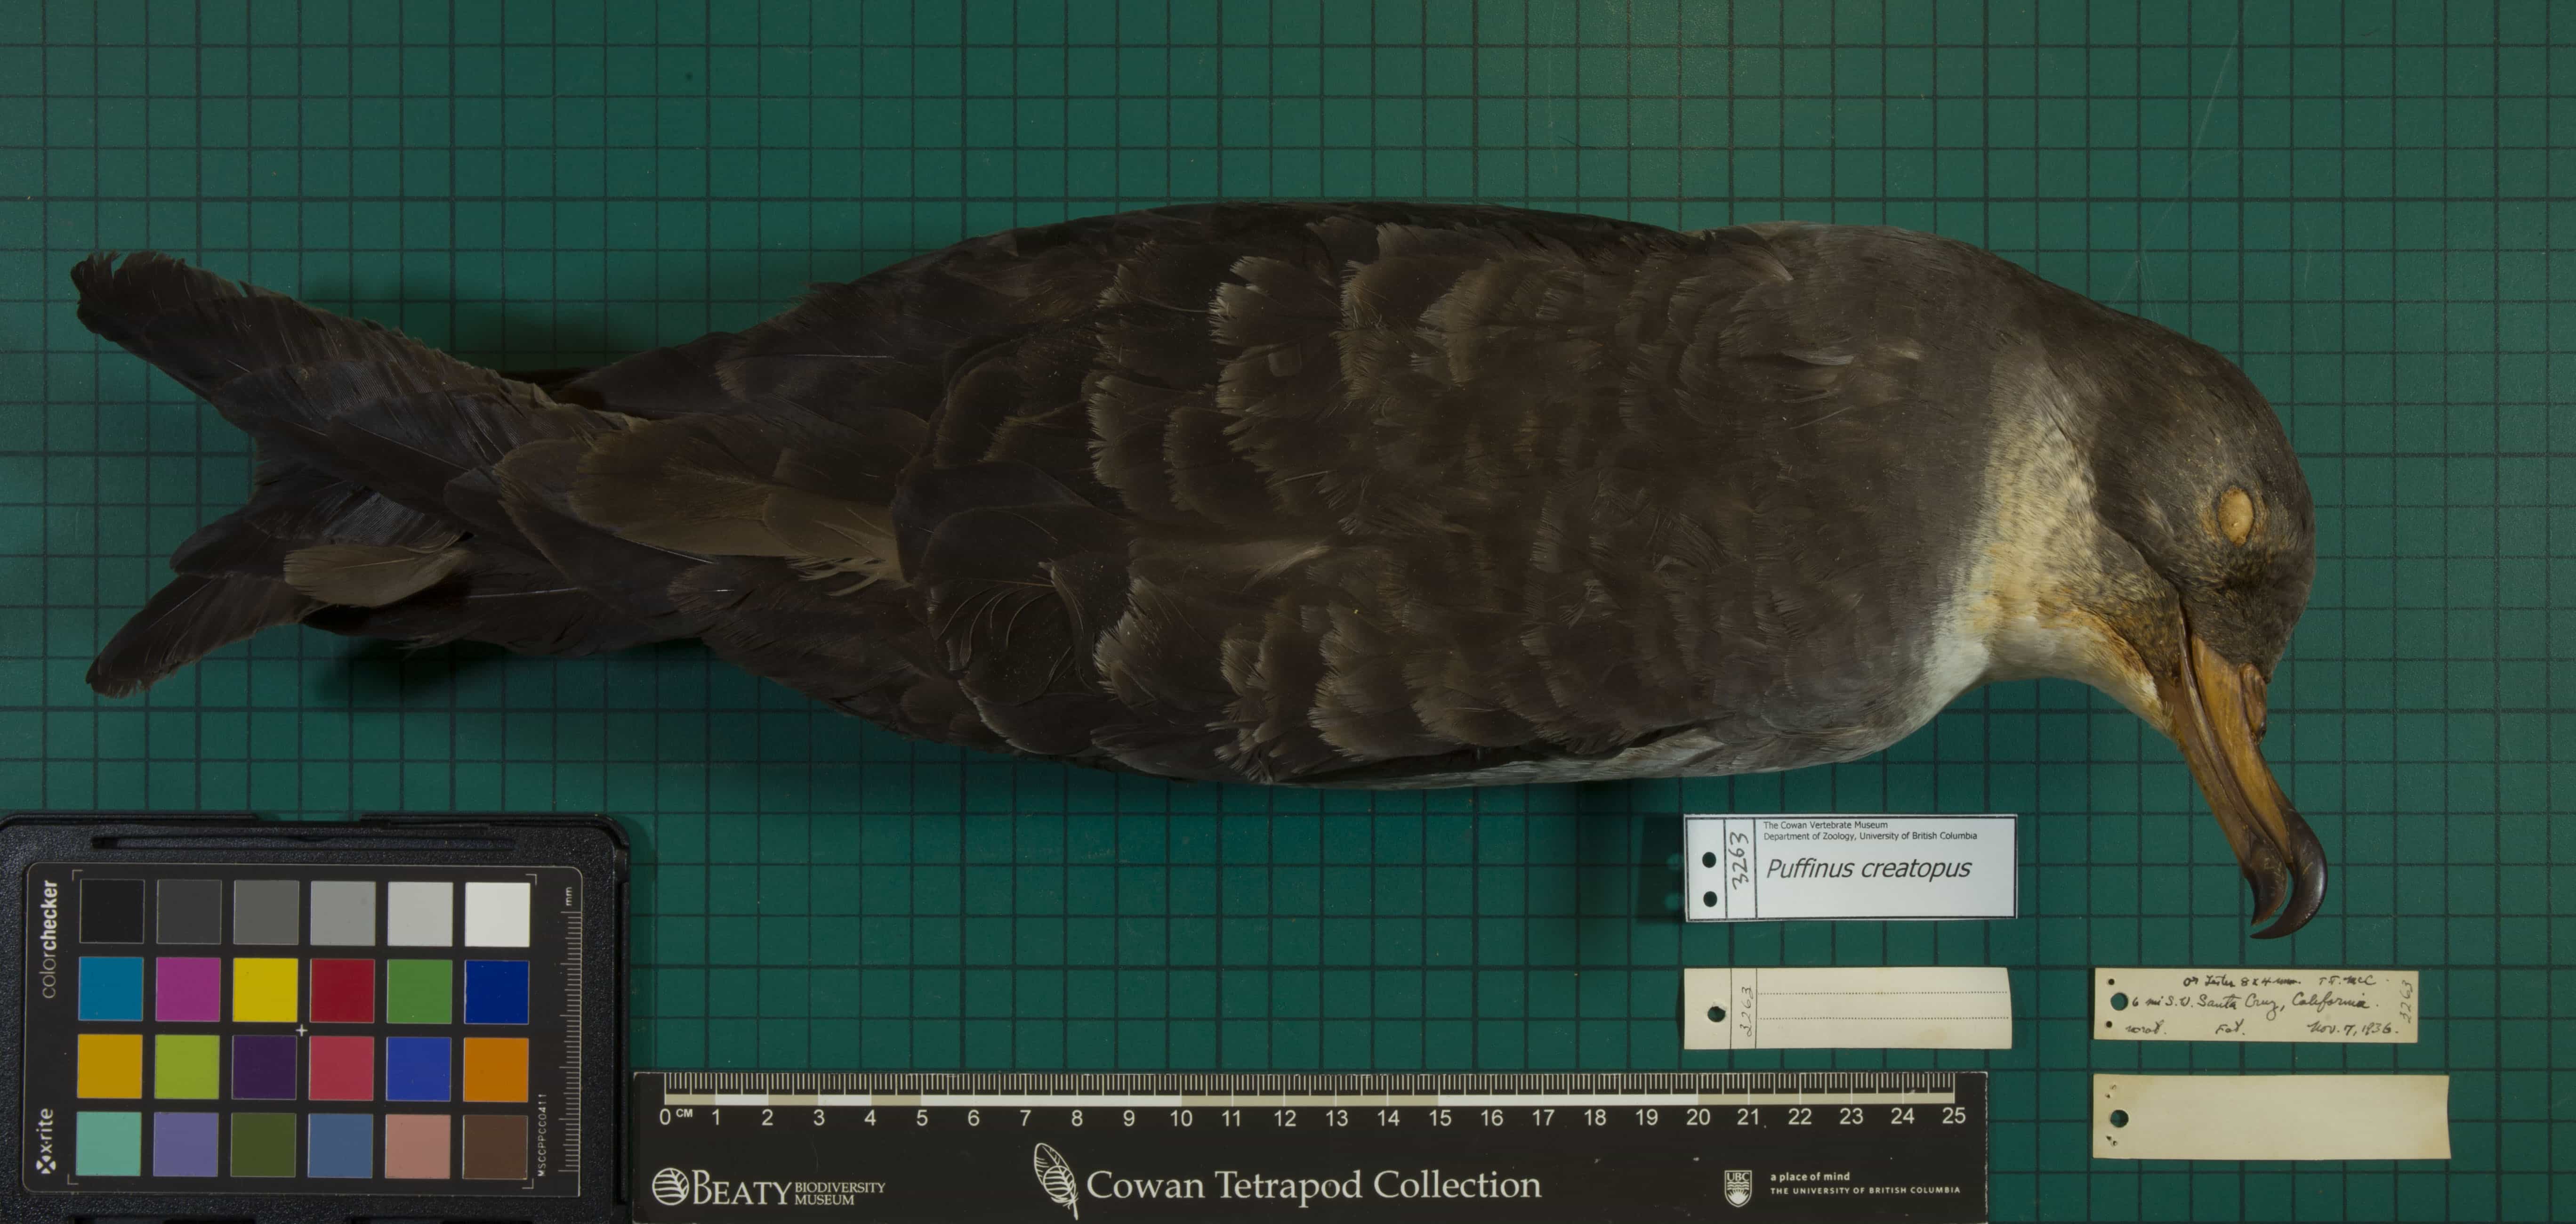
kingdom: Animalia
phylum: Chordata
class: Aves
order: Procellariiformes
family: Procellariidae
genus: Puffinus
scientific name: Puffinus creatopus
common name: Pink-footed Shearwater
